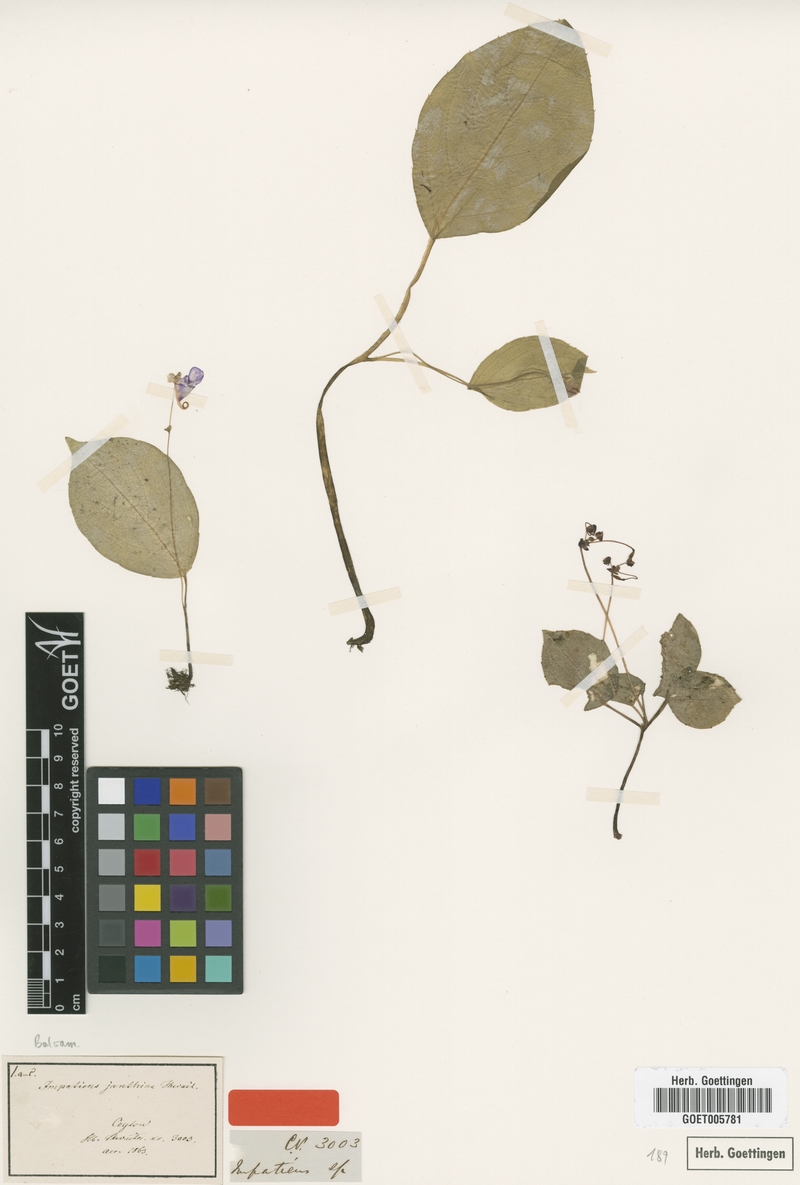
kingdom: Plantae
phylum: Tracheophyta
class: Magnoliopsida
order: Ericales
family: Balsaminaceae
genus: Impatiens
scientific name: Impatiens janthina
